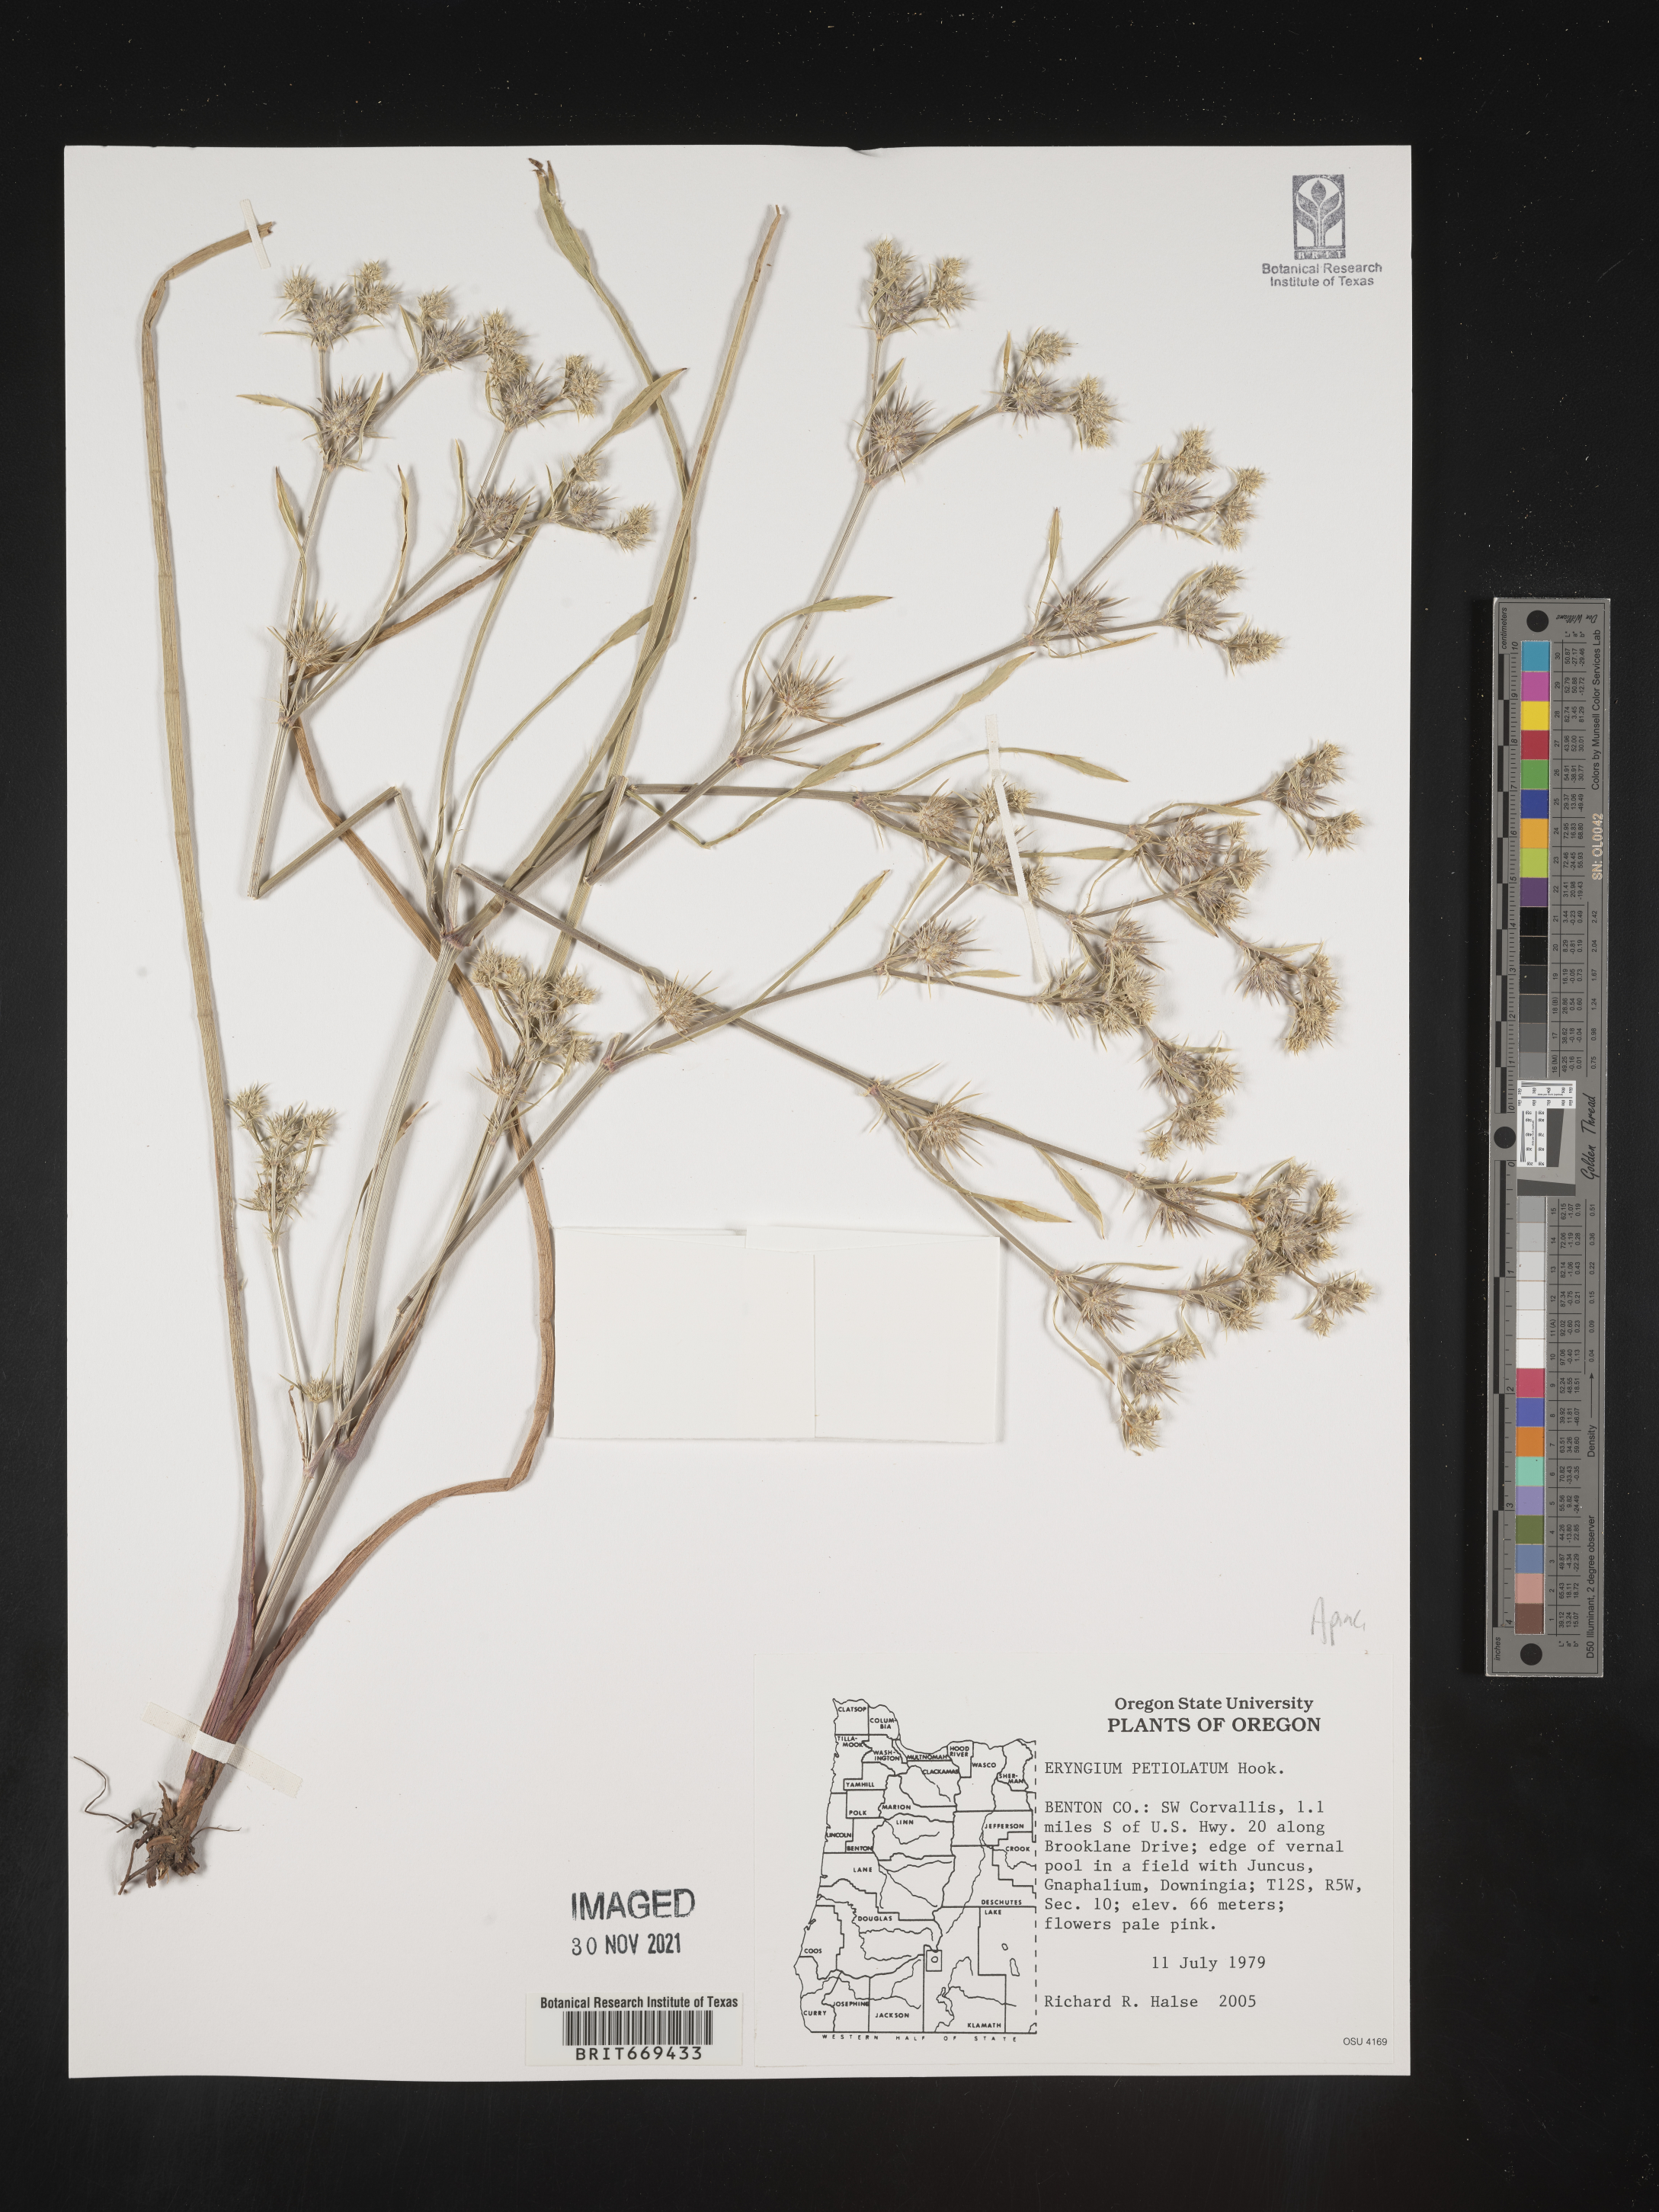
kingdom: Plantae
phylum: Tracheophyta
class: Magnoliopsida
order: Apiales
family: Apiaceae
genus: Eryngium
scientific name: Eryngium
